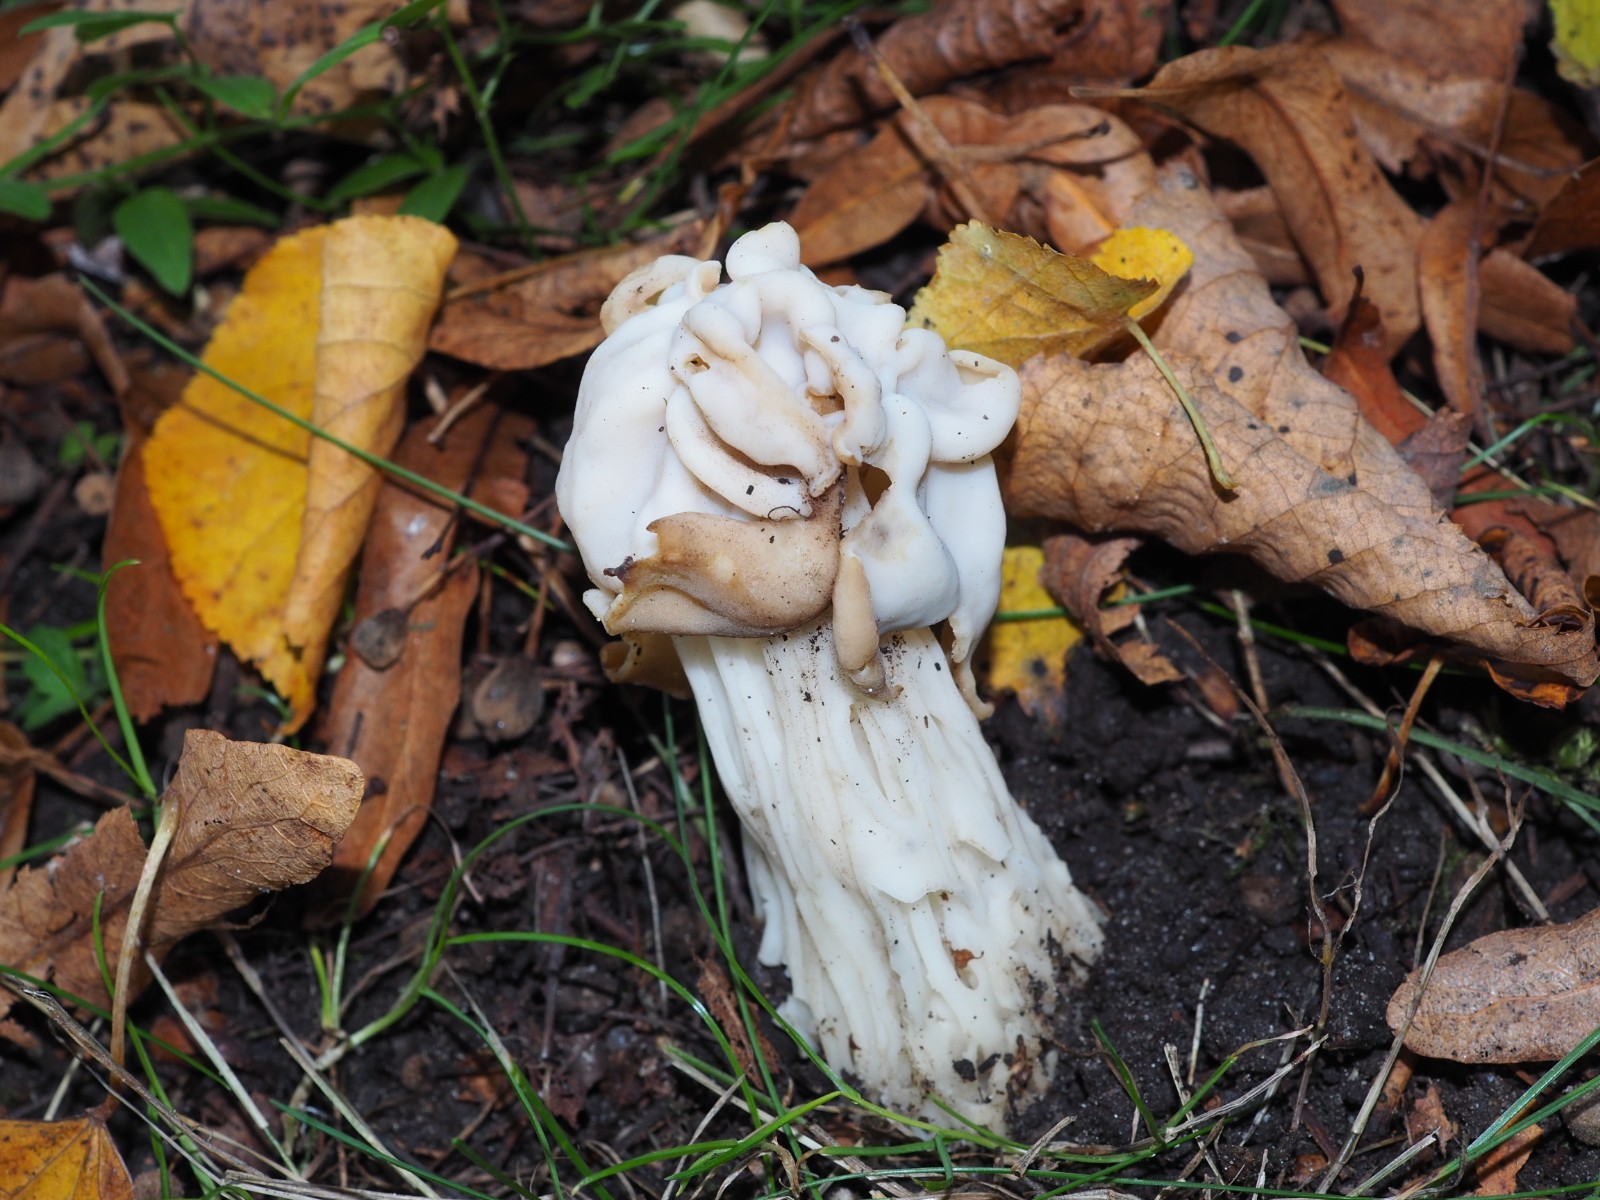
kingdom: Fungi
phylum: Ascomycota
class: Pezizomycetes
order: Pezizales
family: Helvellaceae
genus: Helvella
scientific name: Helvella crispa
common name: kruset foldhat
